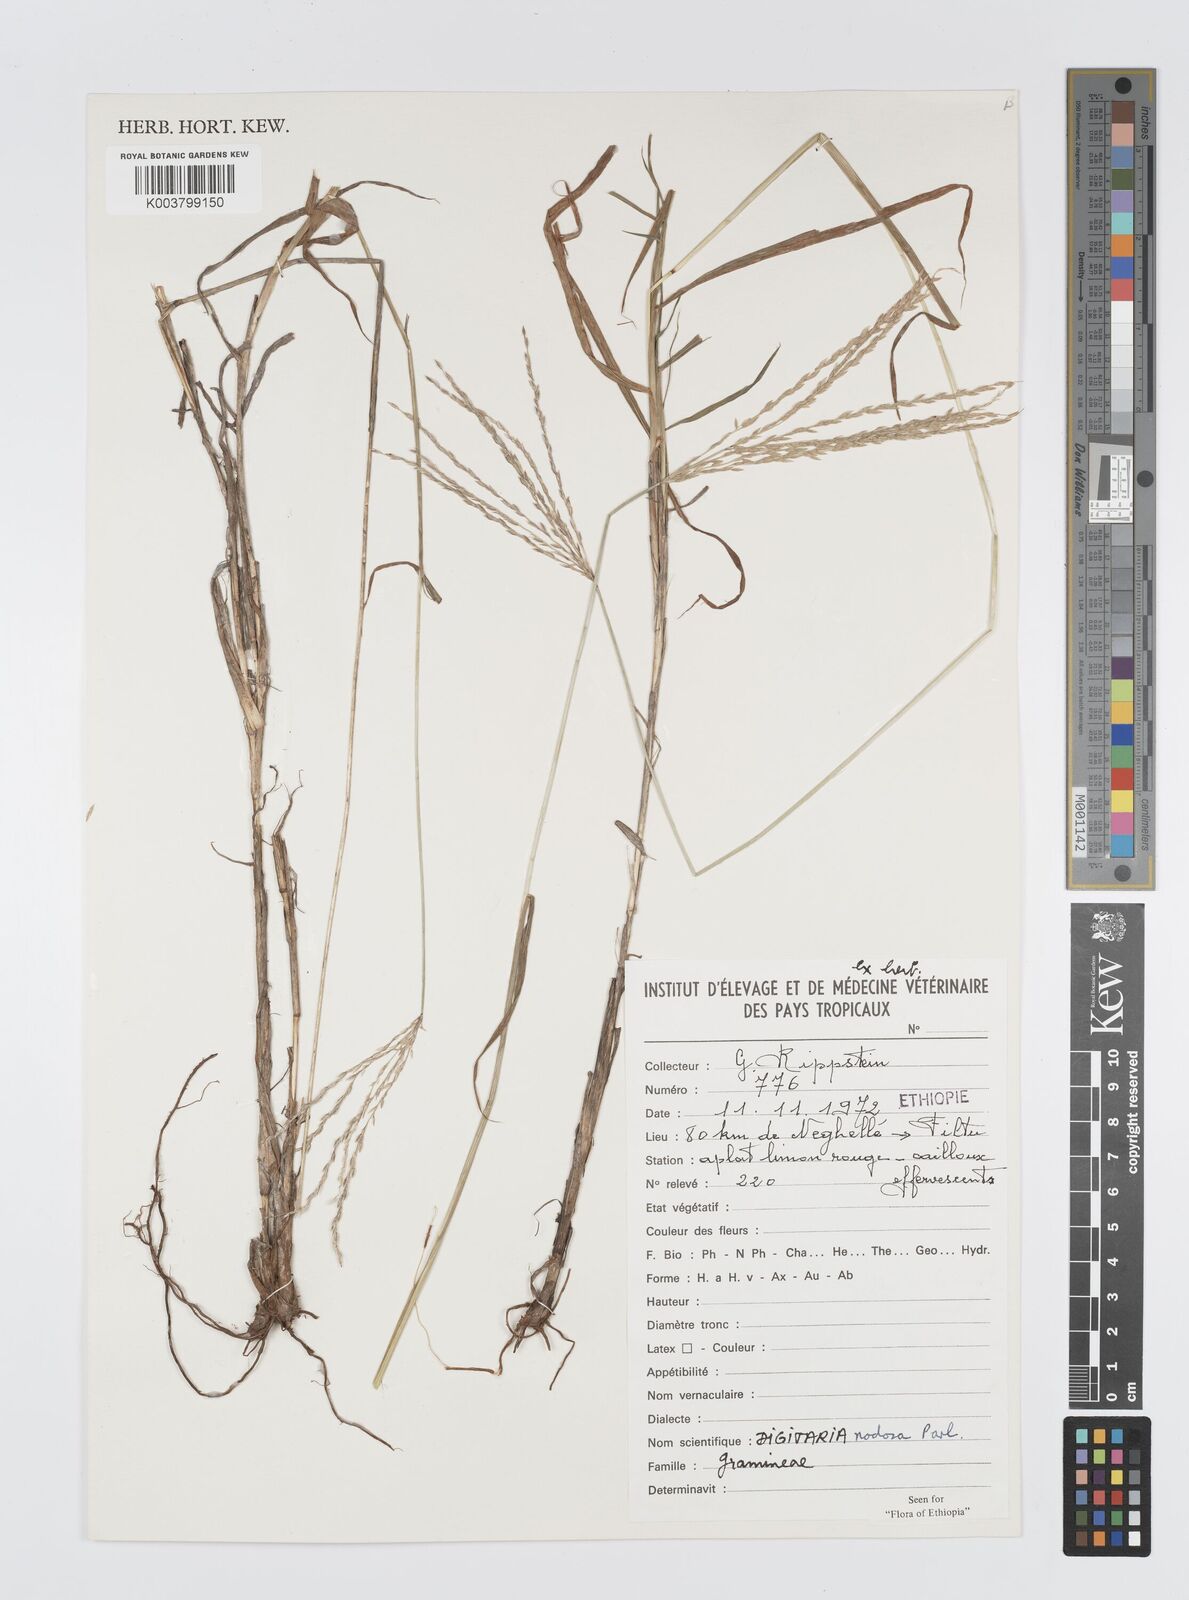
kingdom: Plantae
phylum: Tracheophyta
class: Liliopsida
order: Poales
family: Poaceae
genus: Digitaria
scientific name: Digitaria nodosa
